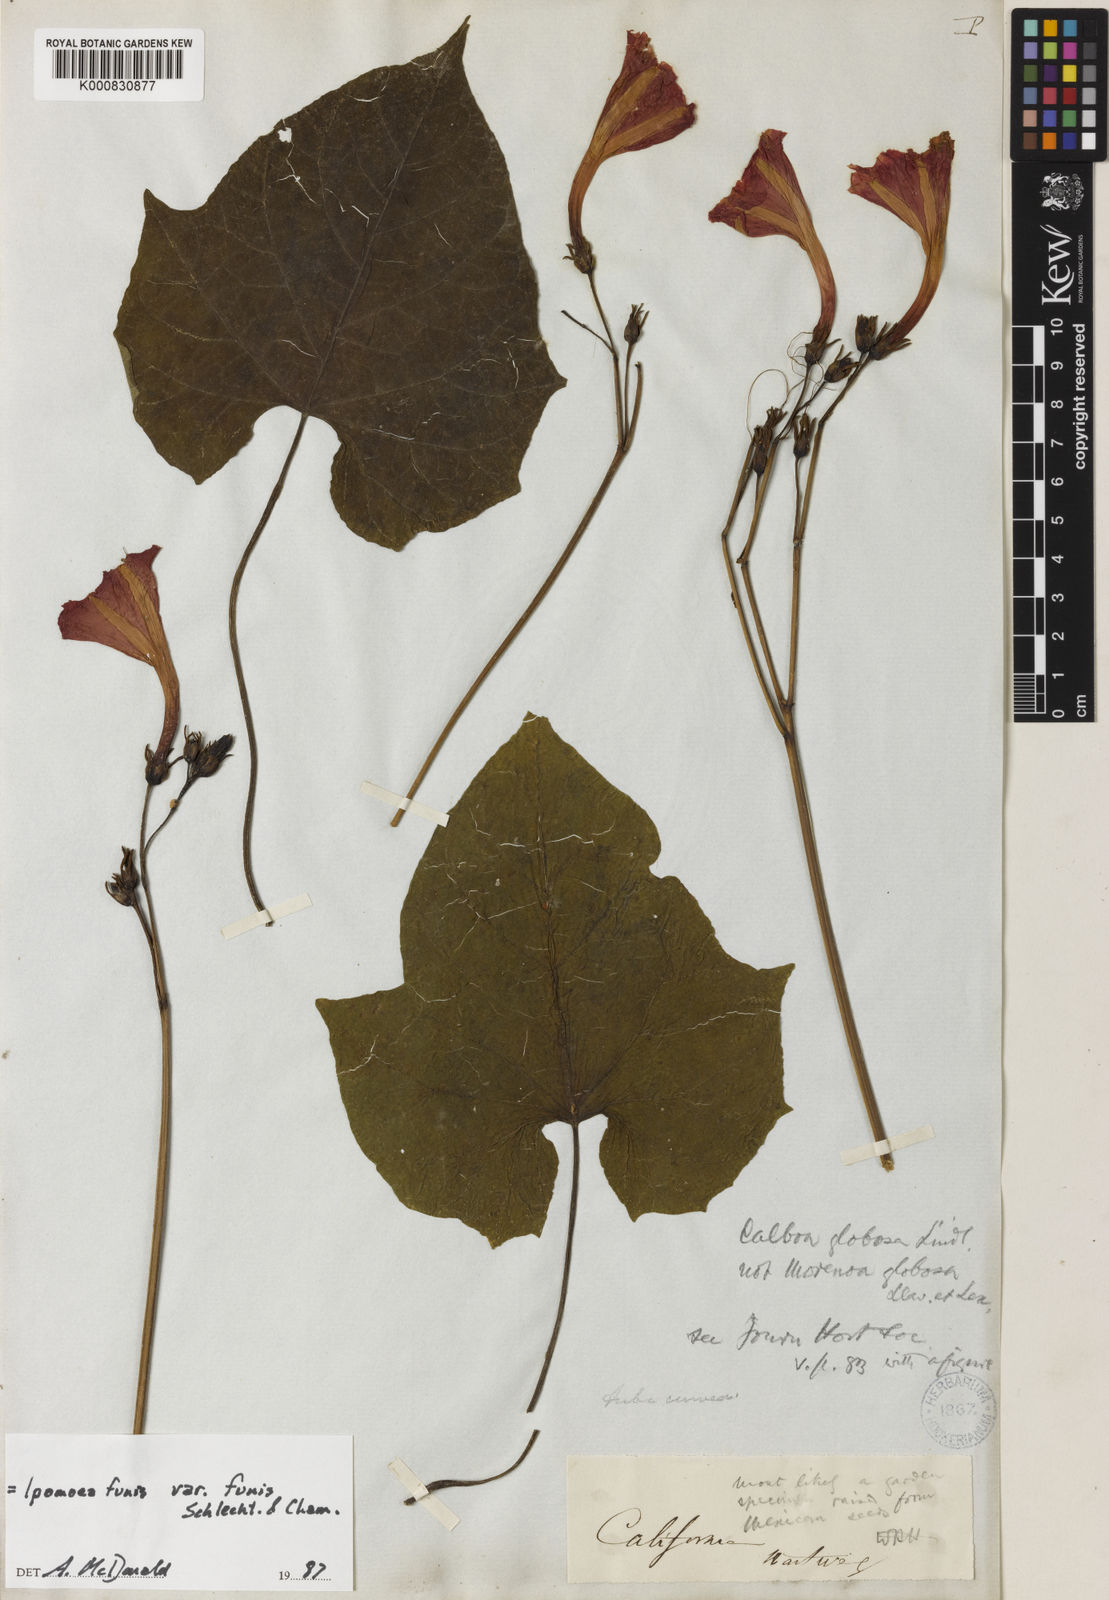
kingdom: Plantae
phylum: Tracheophyta
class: Magnoliopsida
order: Solanales
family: Convolvulaceae
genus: Ipomoea
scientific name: Ipomoea funis
